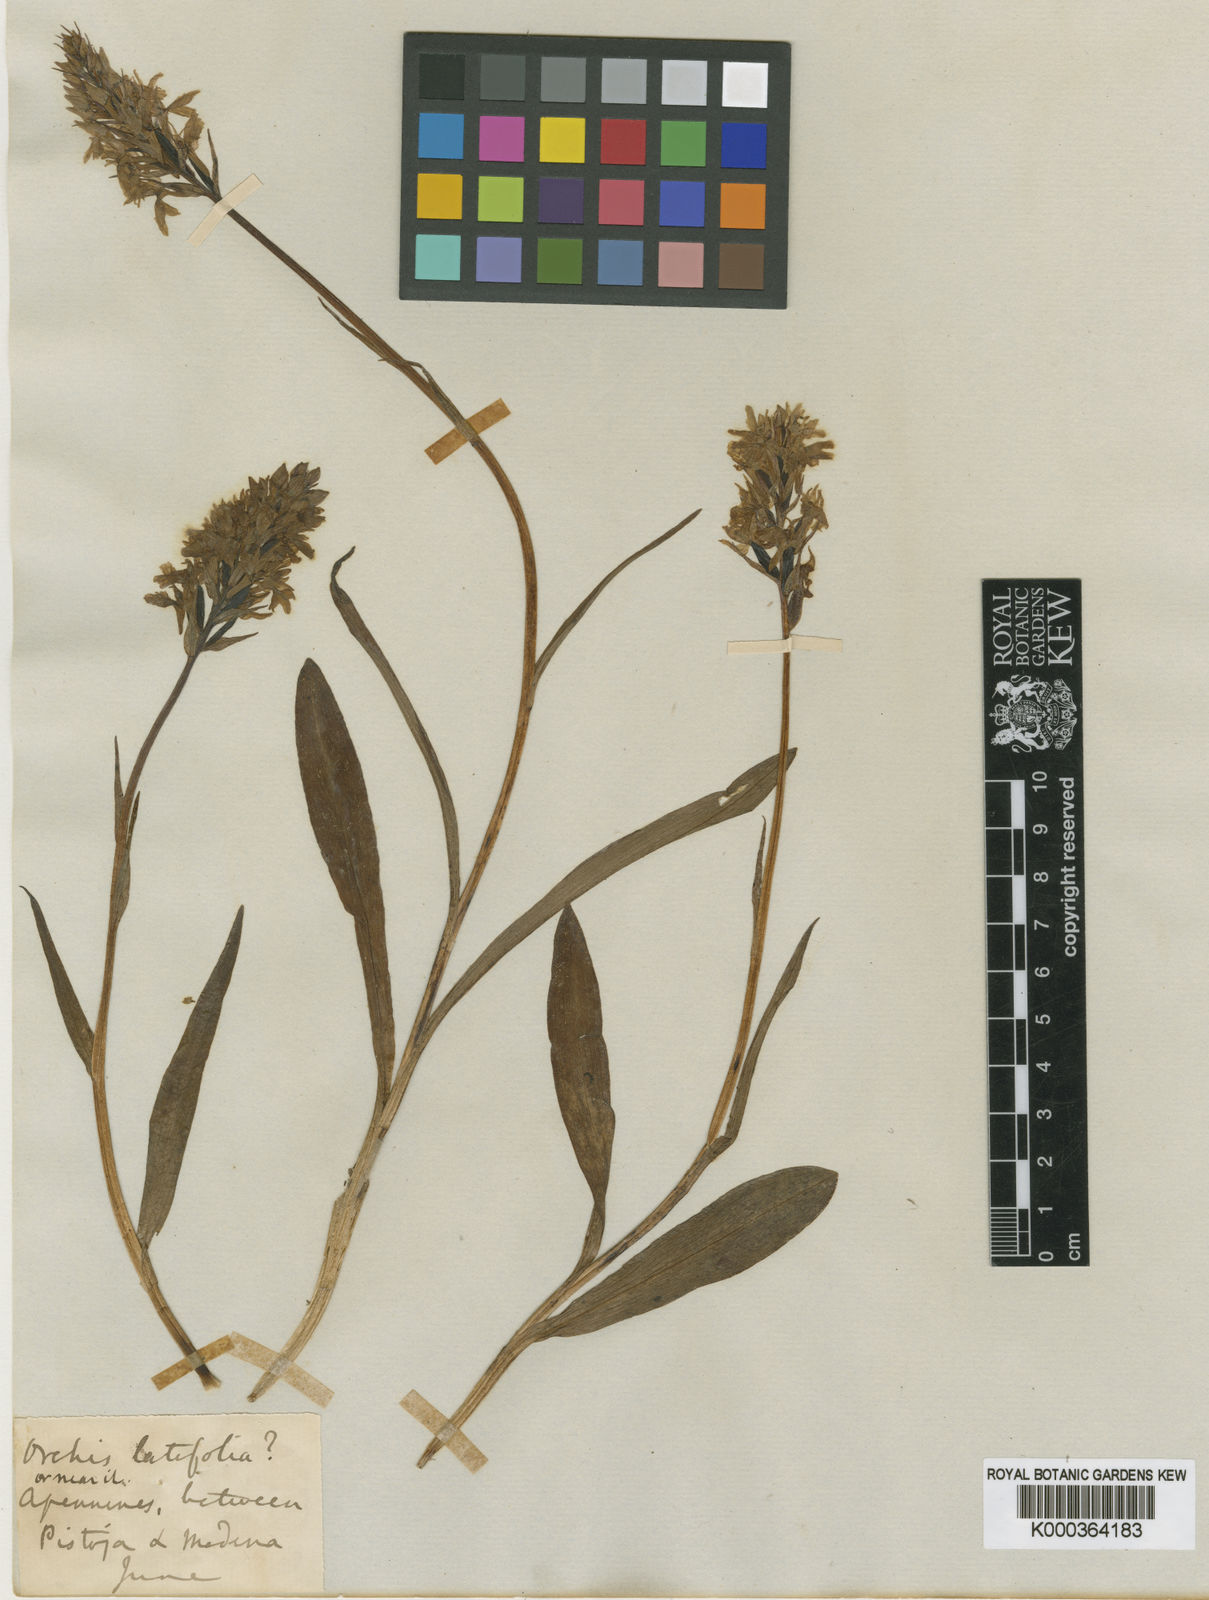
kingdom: Plantae
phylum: Tracheophyta
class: Liliopsida
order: Asparagales
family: Orchidaceae
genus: Dactylorhiza
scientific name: Dactylorhiza
